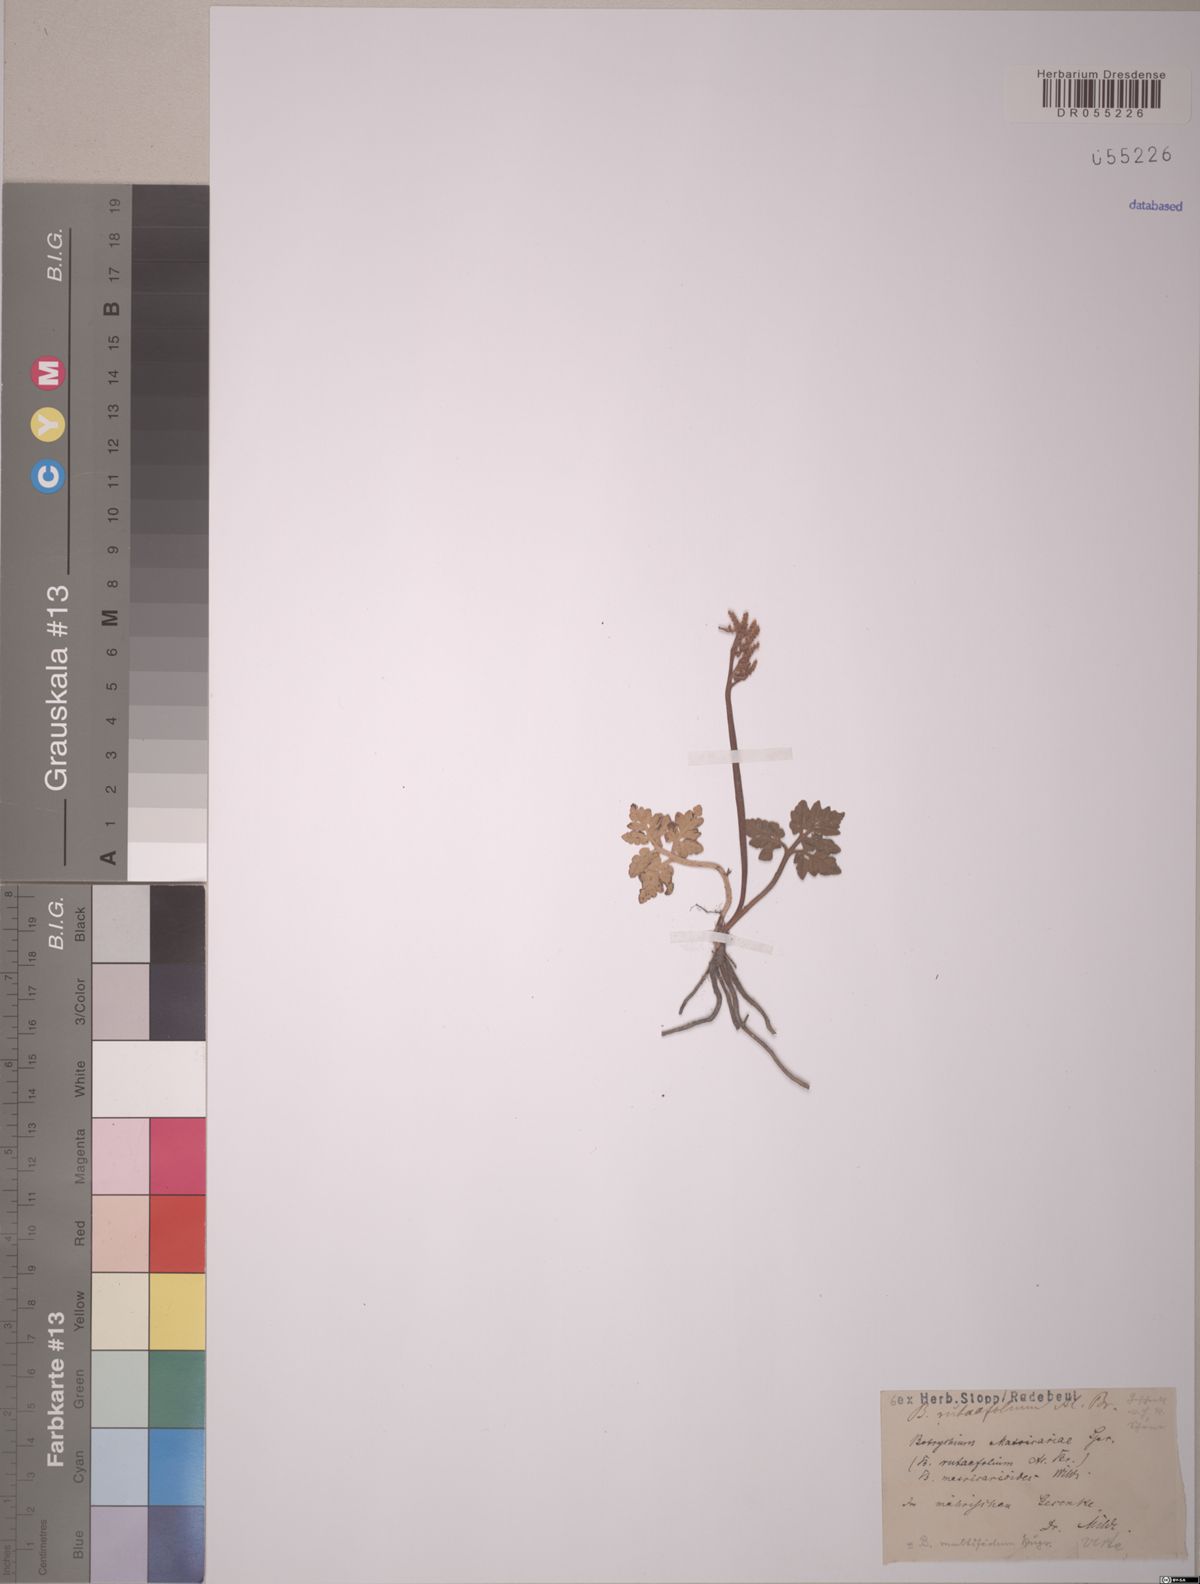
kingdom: Plantae
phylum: Tracheophyta
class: Polypodiopsida
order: Ophioglossales
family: Ophioglossaceae
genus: Sceptridium
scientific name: Sceptridium multifidum
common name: Leathery grape fern
